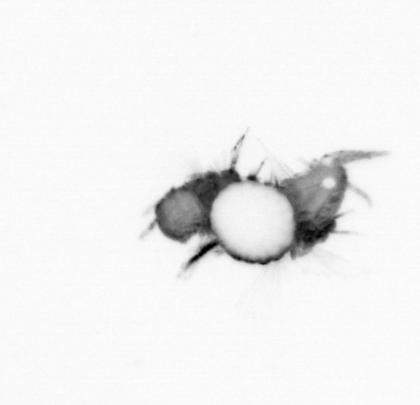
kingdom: Animalia
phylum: Annelida
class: Polychaeta
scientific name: Polychaeta
